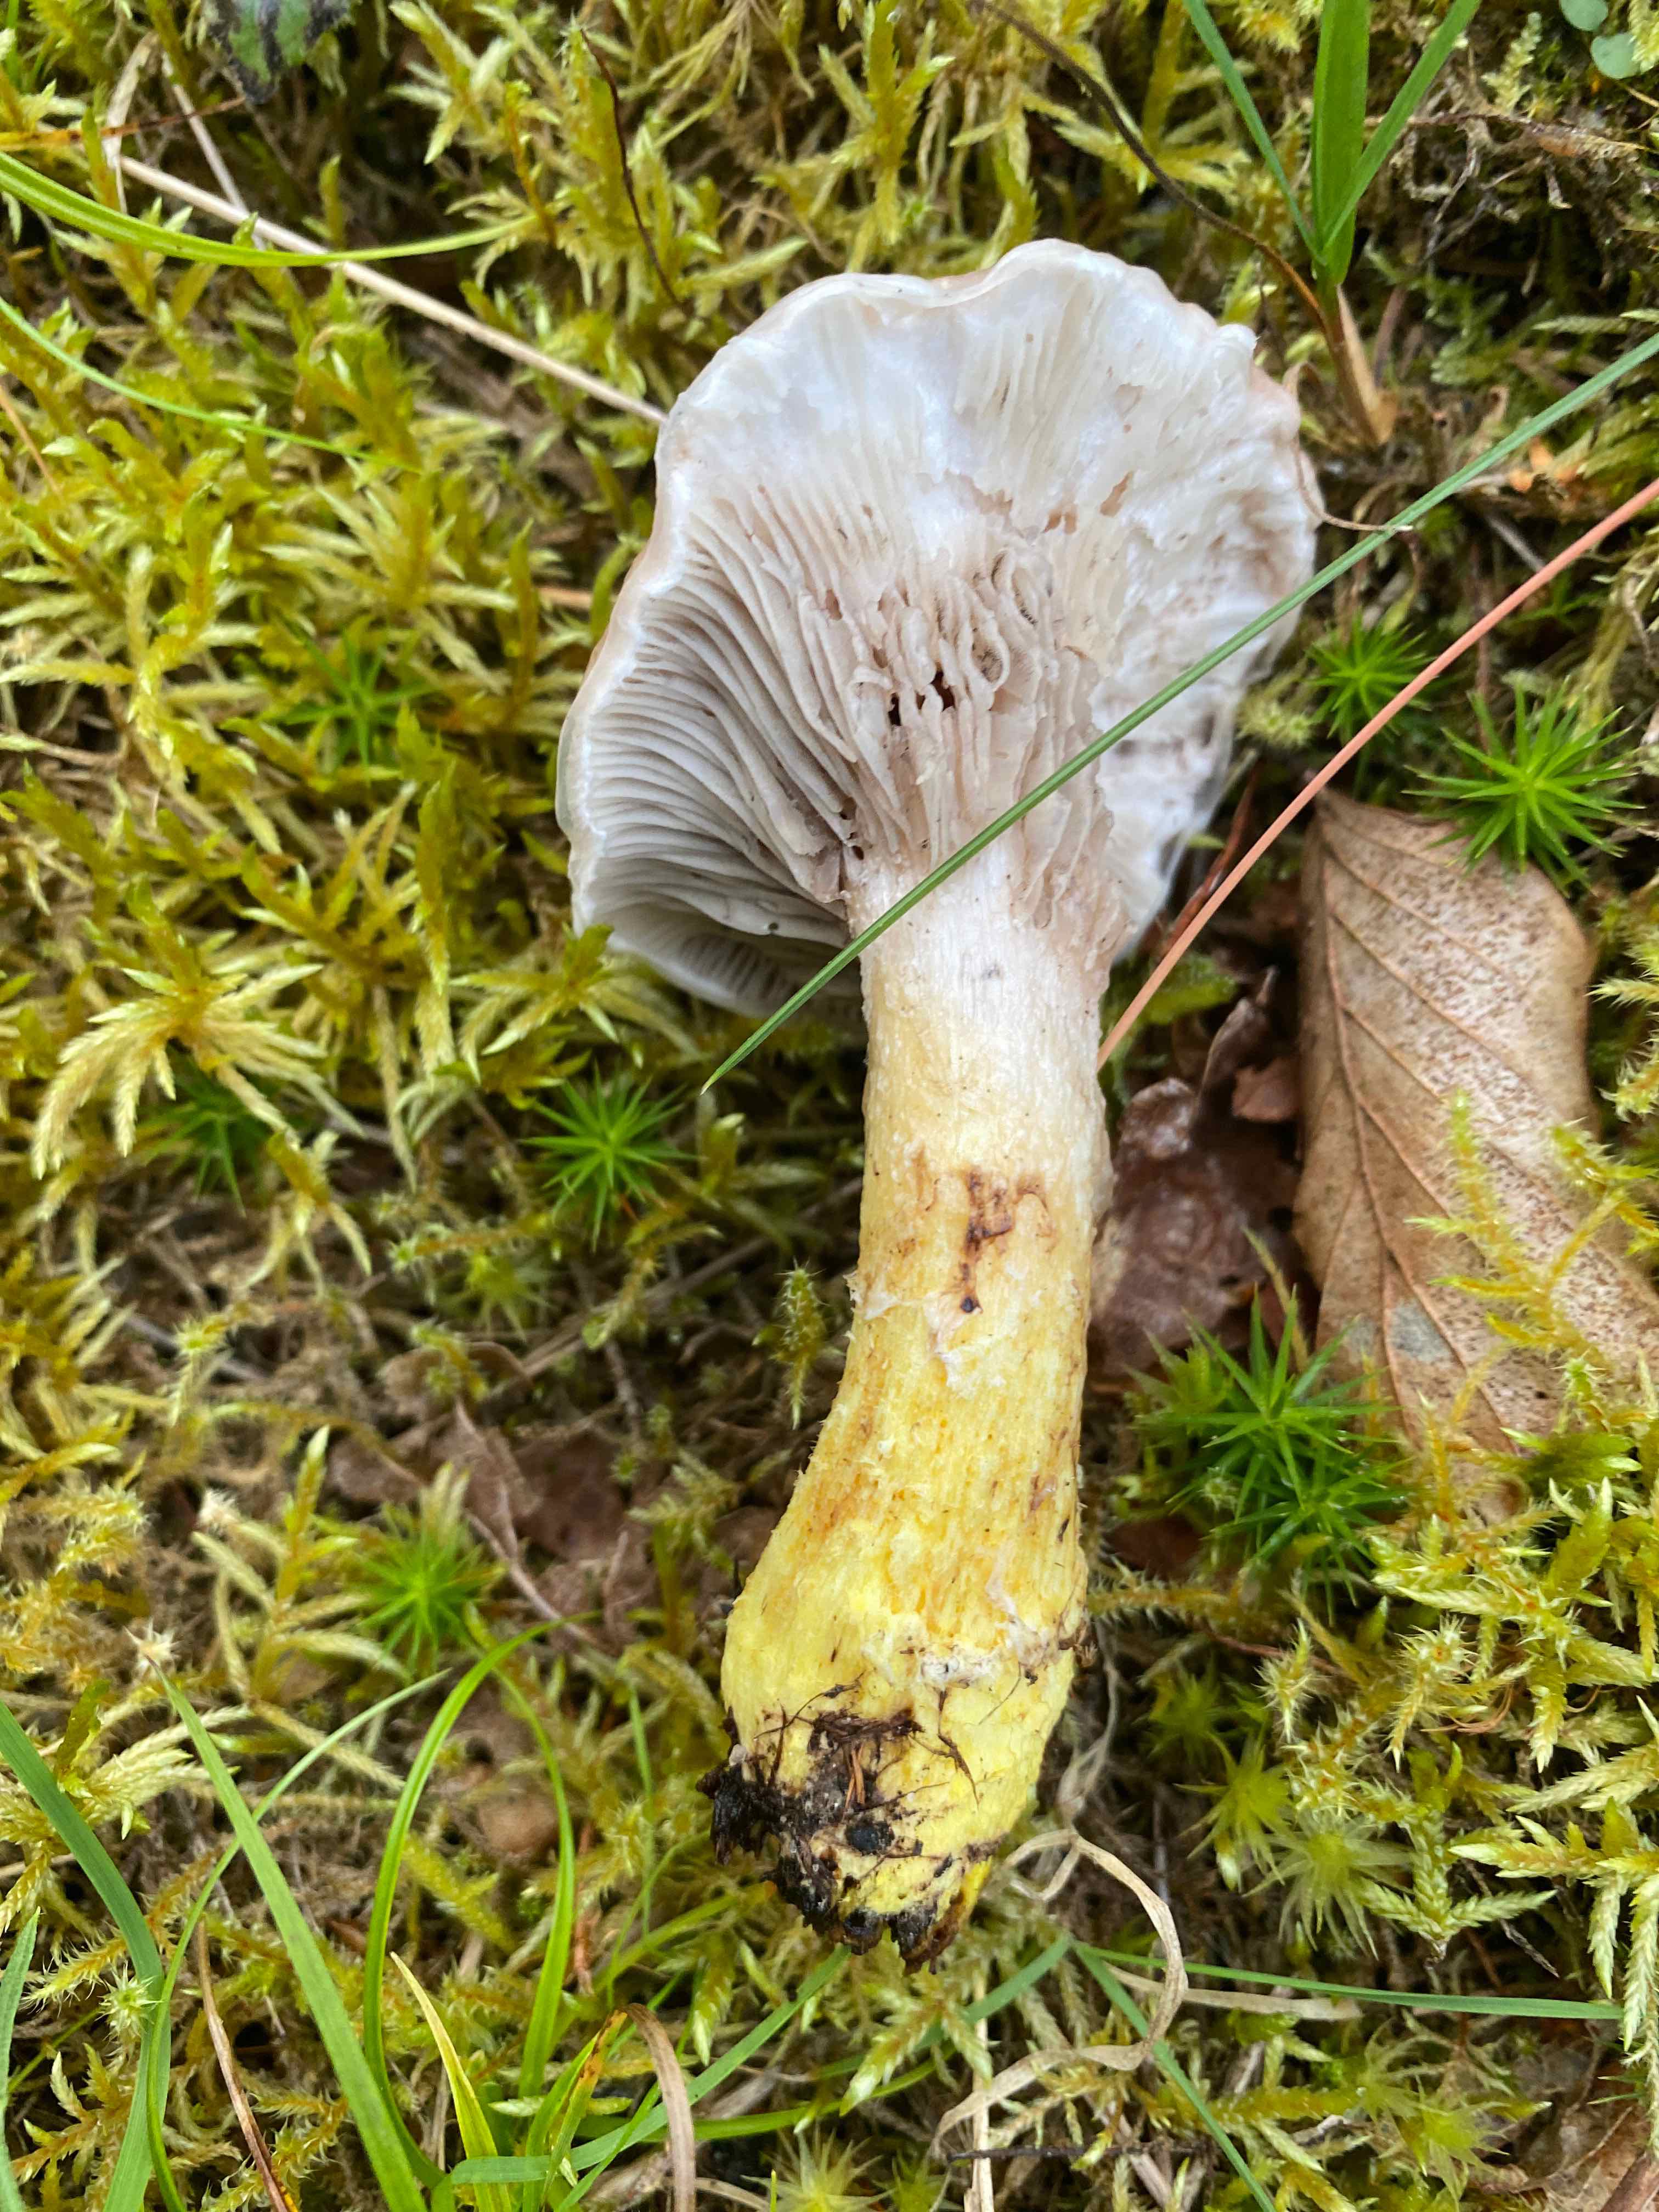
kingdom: Fungi
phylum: Basidiomycota
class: Agaricomycetes
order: Boletales
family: Gomphidiaceae
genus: Gomphidius
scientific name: Gomphidius glutinosus
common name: grå slimslør
